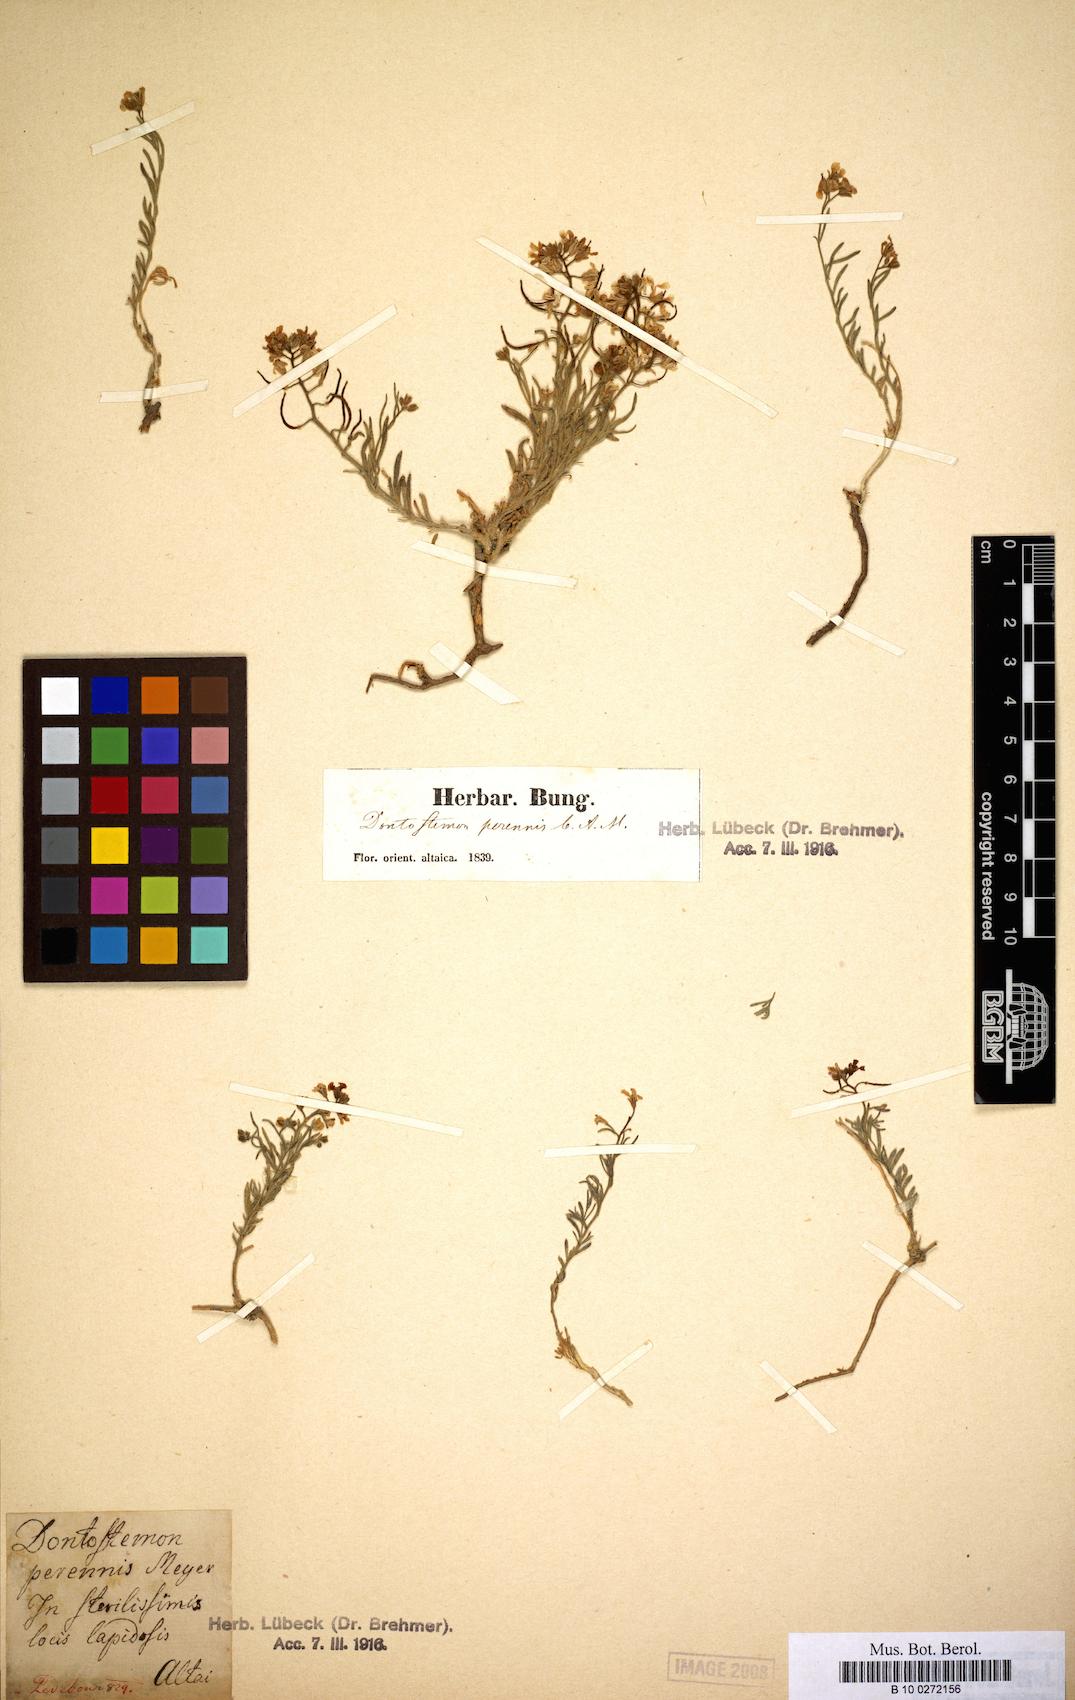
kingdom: Plantae
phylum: Tracheophyta
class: Magnoliopsida
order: Brassicales
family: Brassicaceae
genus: Dontostemon
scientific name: Dontostemon perennis
